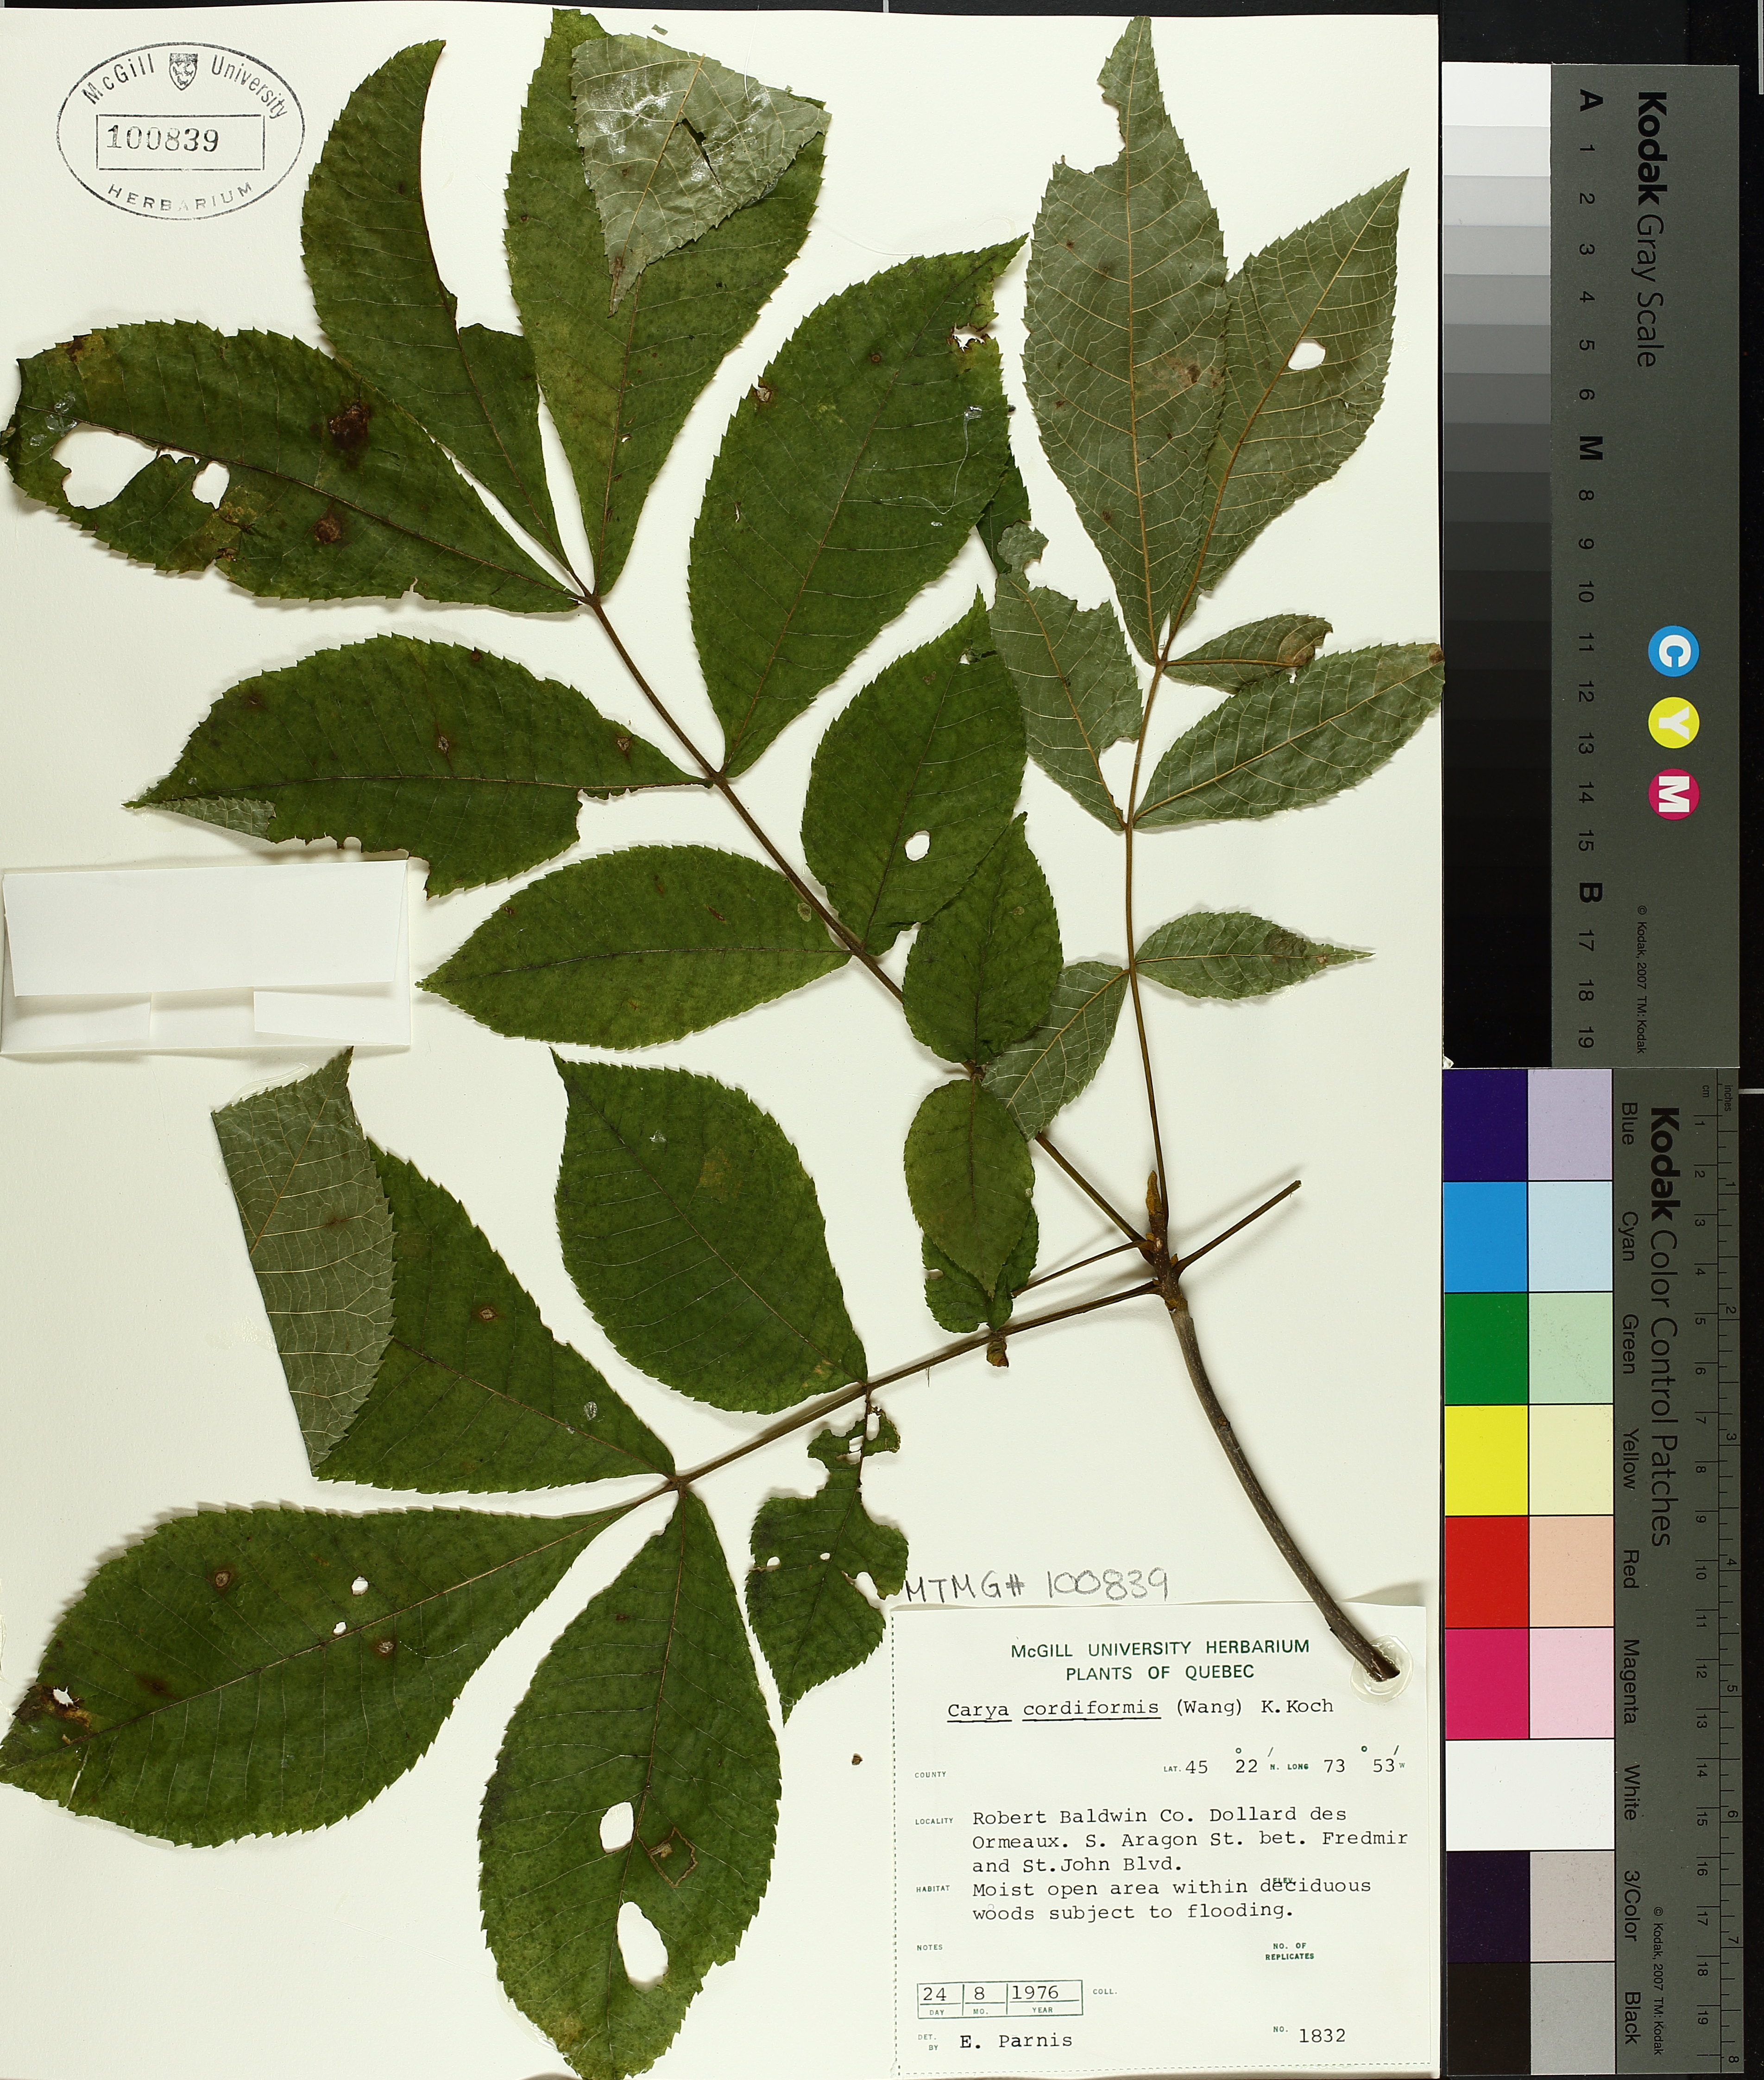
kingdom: Plantae
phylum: Tracheophyta
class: Magnoliopsida
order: Fagales
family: Juglandaceae
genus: Carya
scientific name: Carya cordiformis
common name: Bitternut hickory
